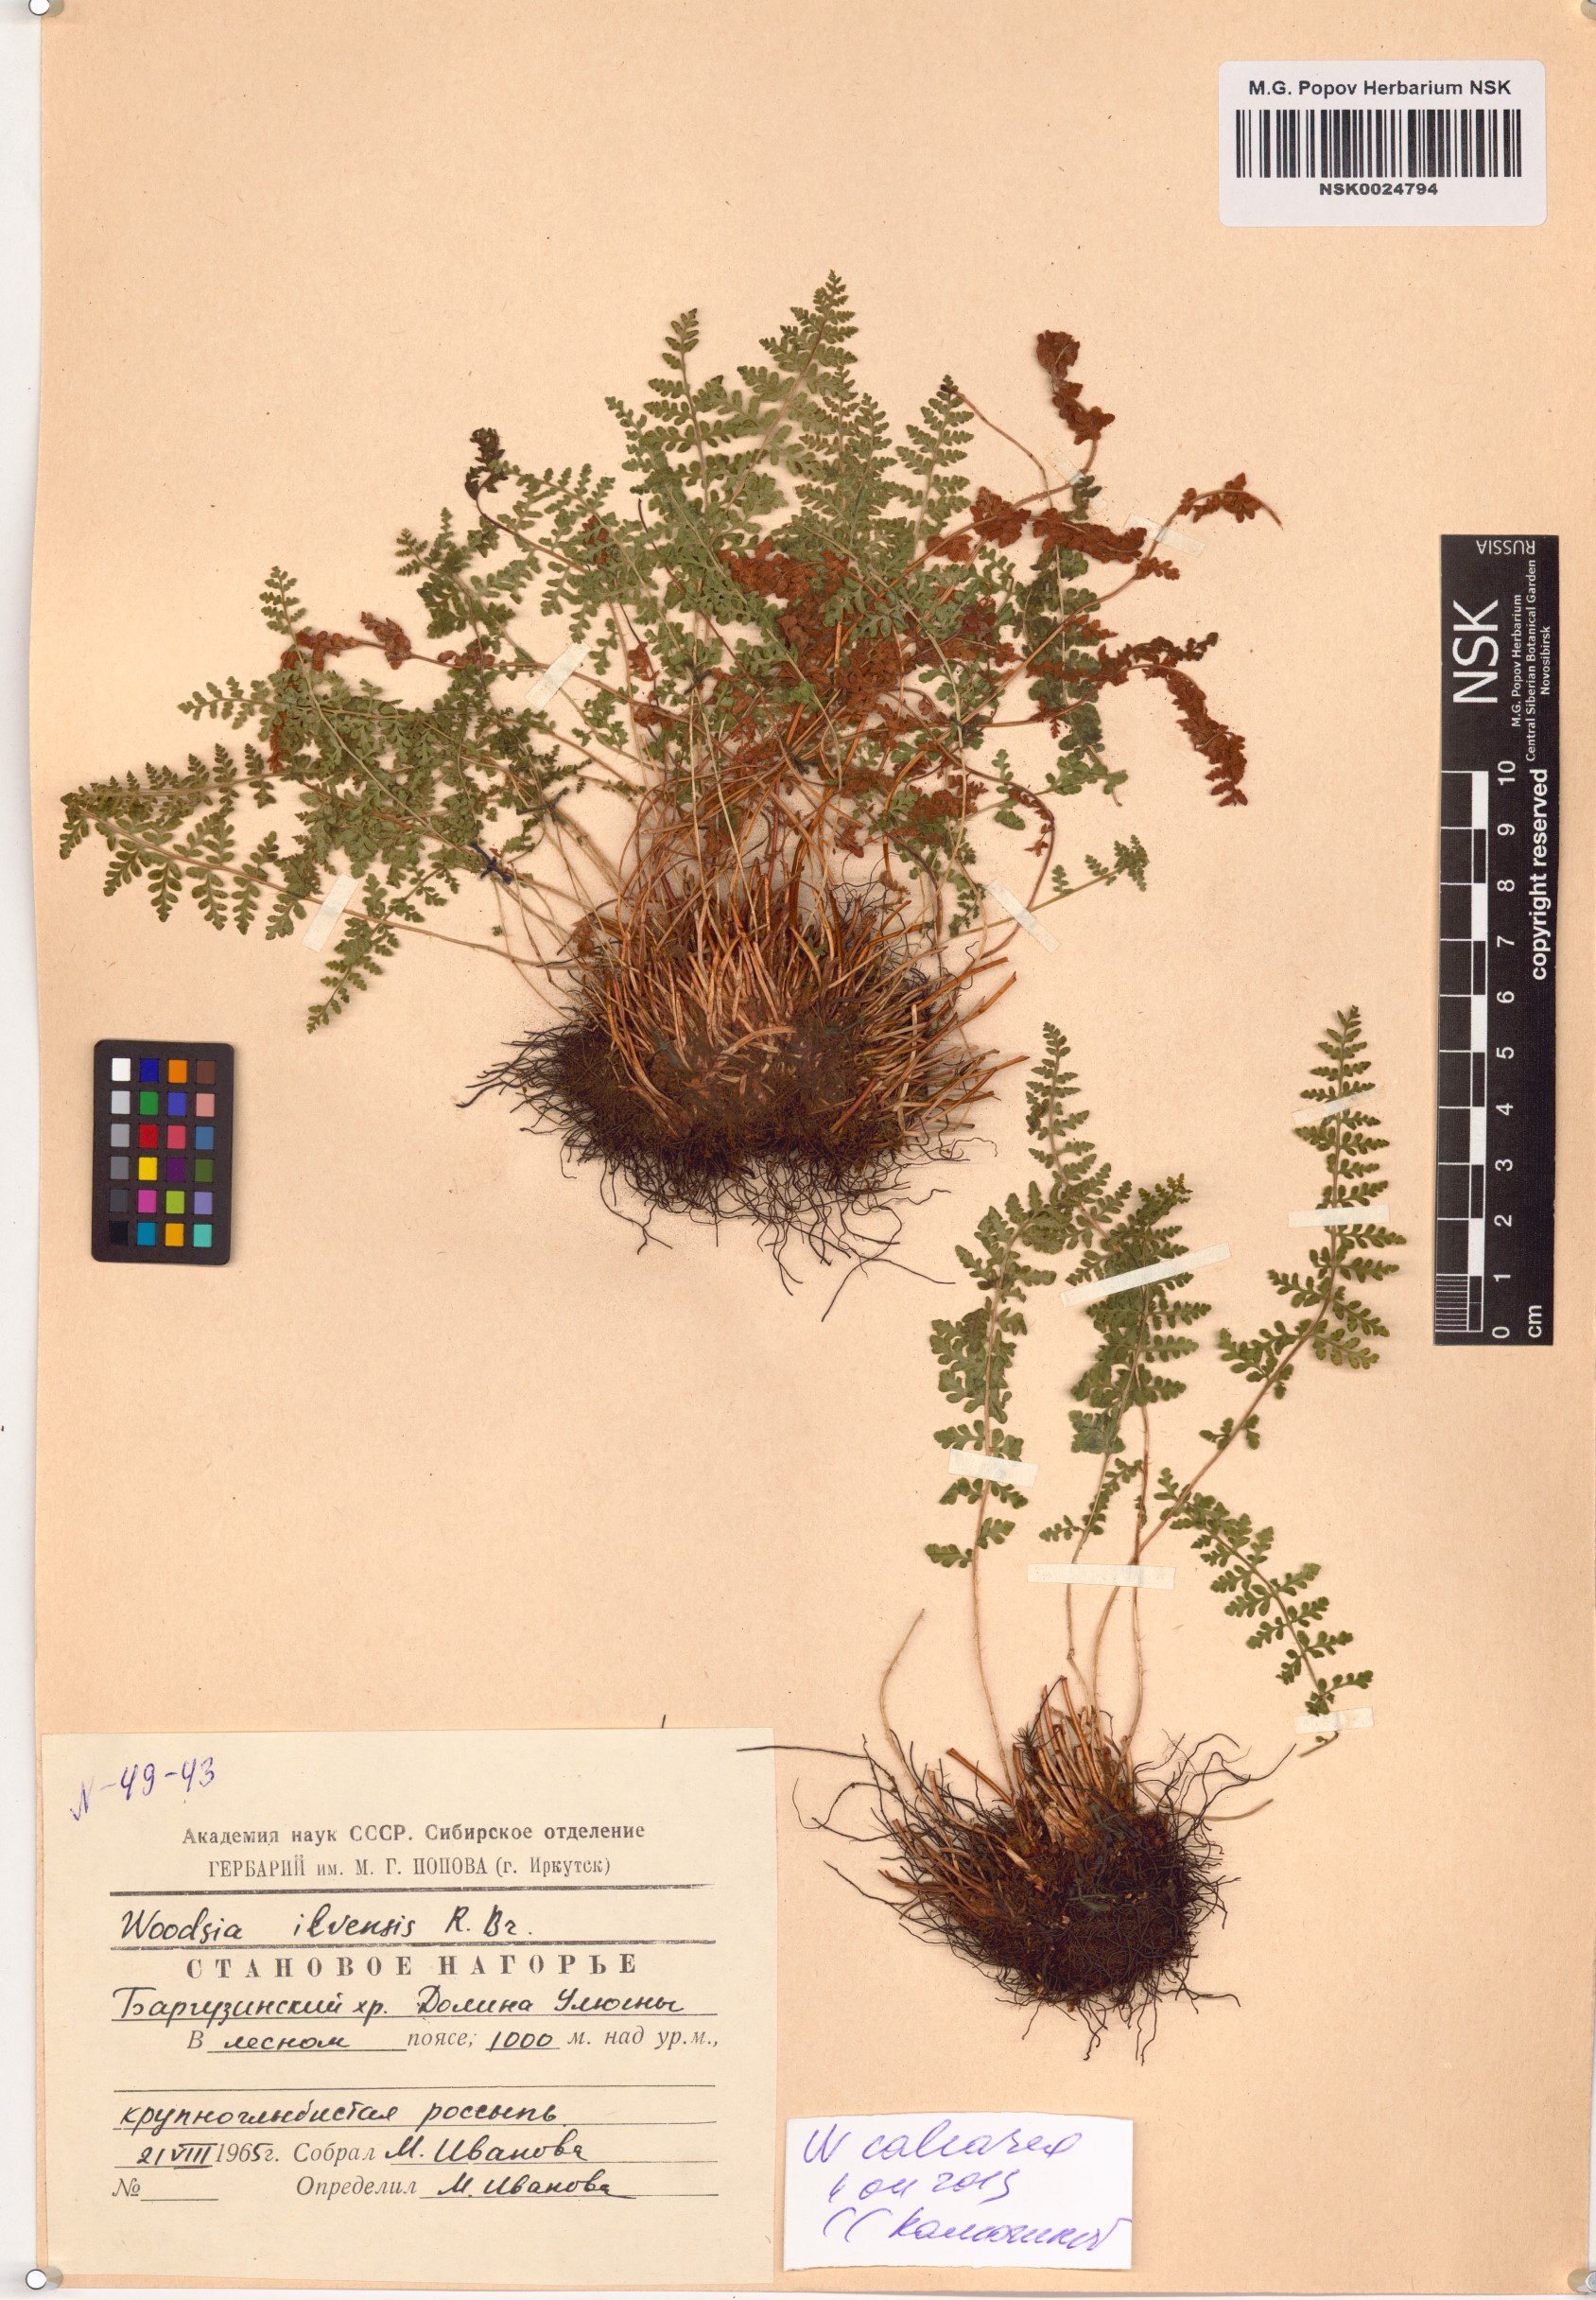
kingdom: Plantae
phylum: Tracheophyta
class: Polypodiopsida
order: Polypodiales
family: Woodsiaceae
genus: Woodsia
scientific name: Woodsia calcarea
